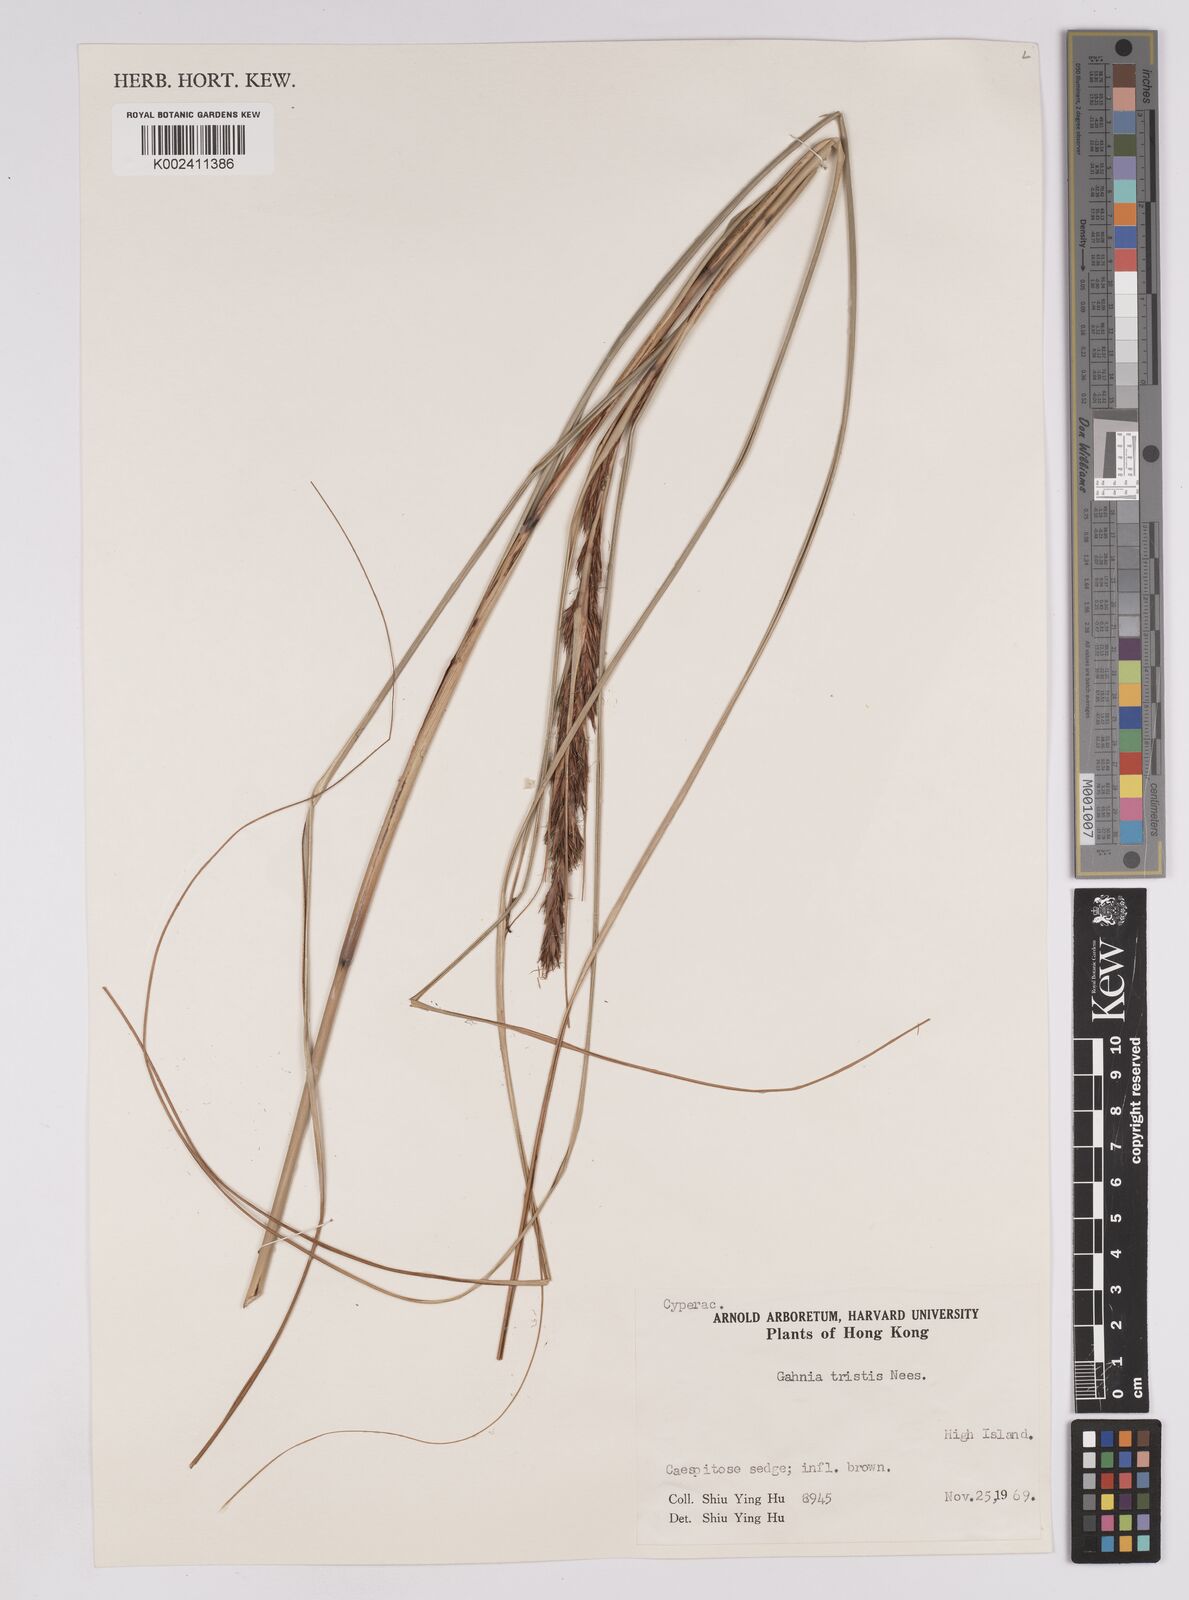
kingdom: Plantae
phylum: Tracheophyta
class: Liliopsida
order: Poales
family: Cyperaceae
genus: Gahnia
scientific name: Gahnia tristis
